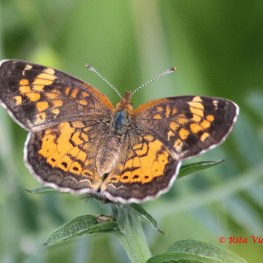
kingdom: Animalia
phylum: Arthropoda
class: Insecta
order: Lepidoptera
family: Nymphalidae
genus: Phyciodes
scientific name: Phyciodes tharos
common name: Northern Crescent
